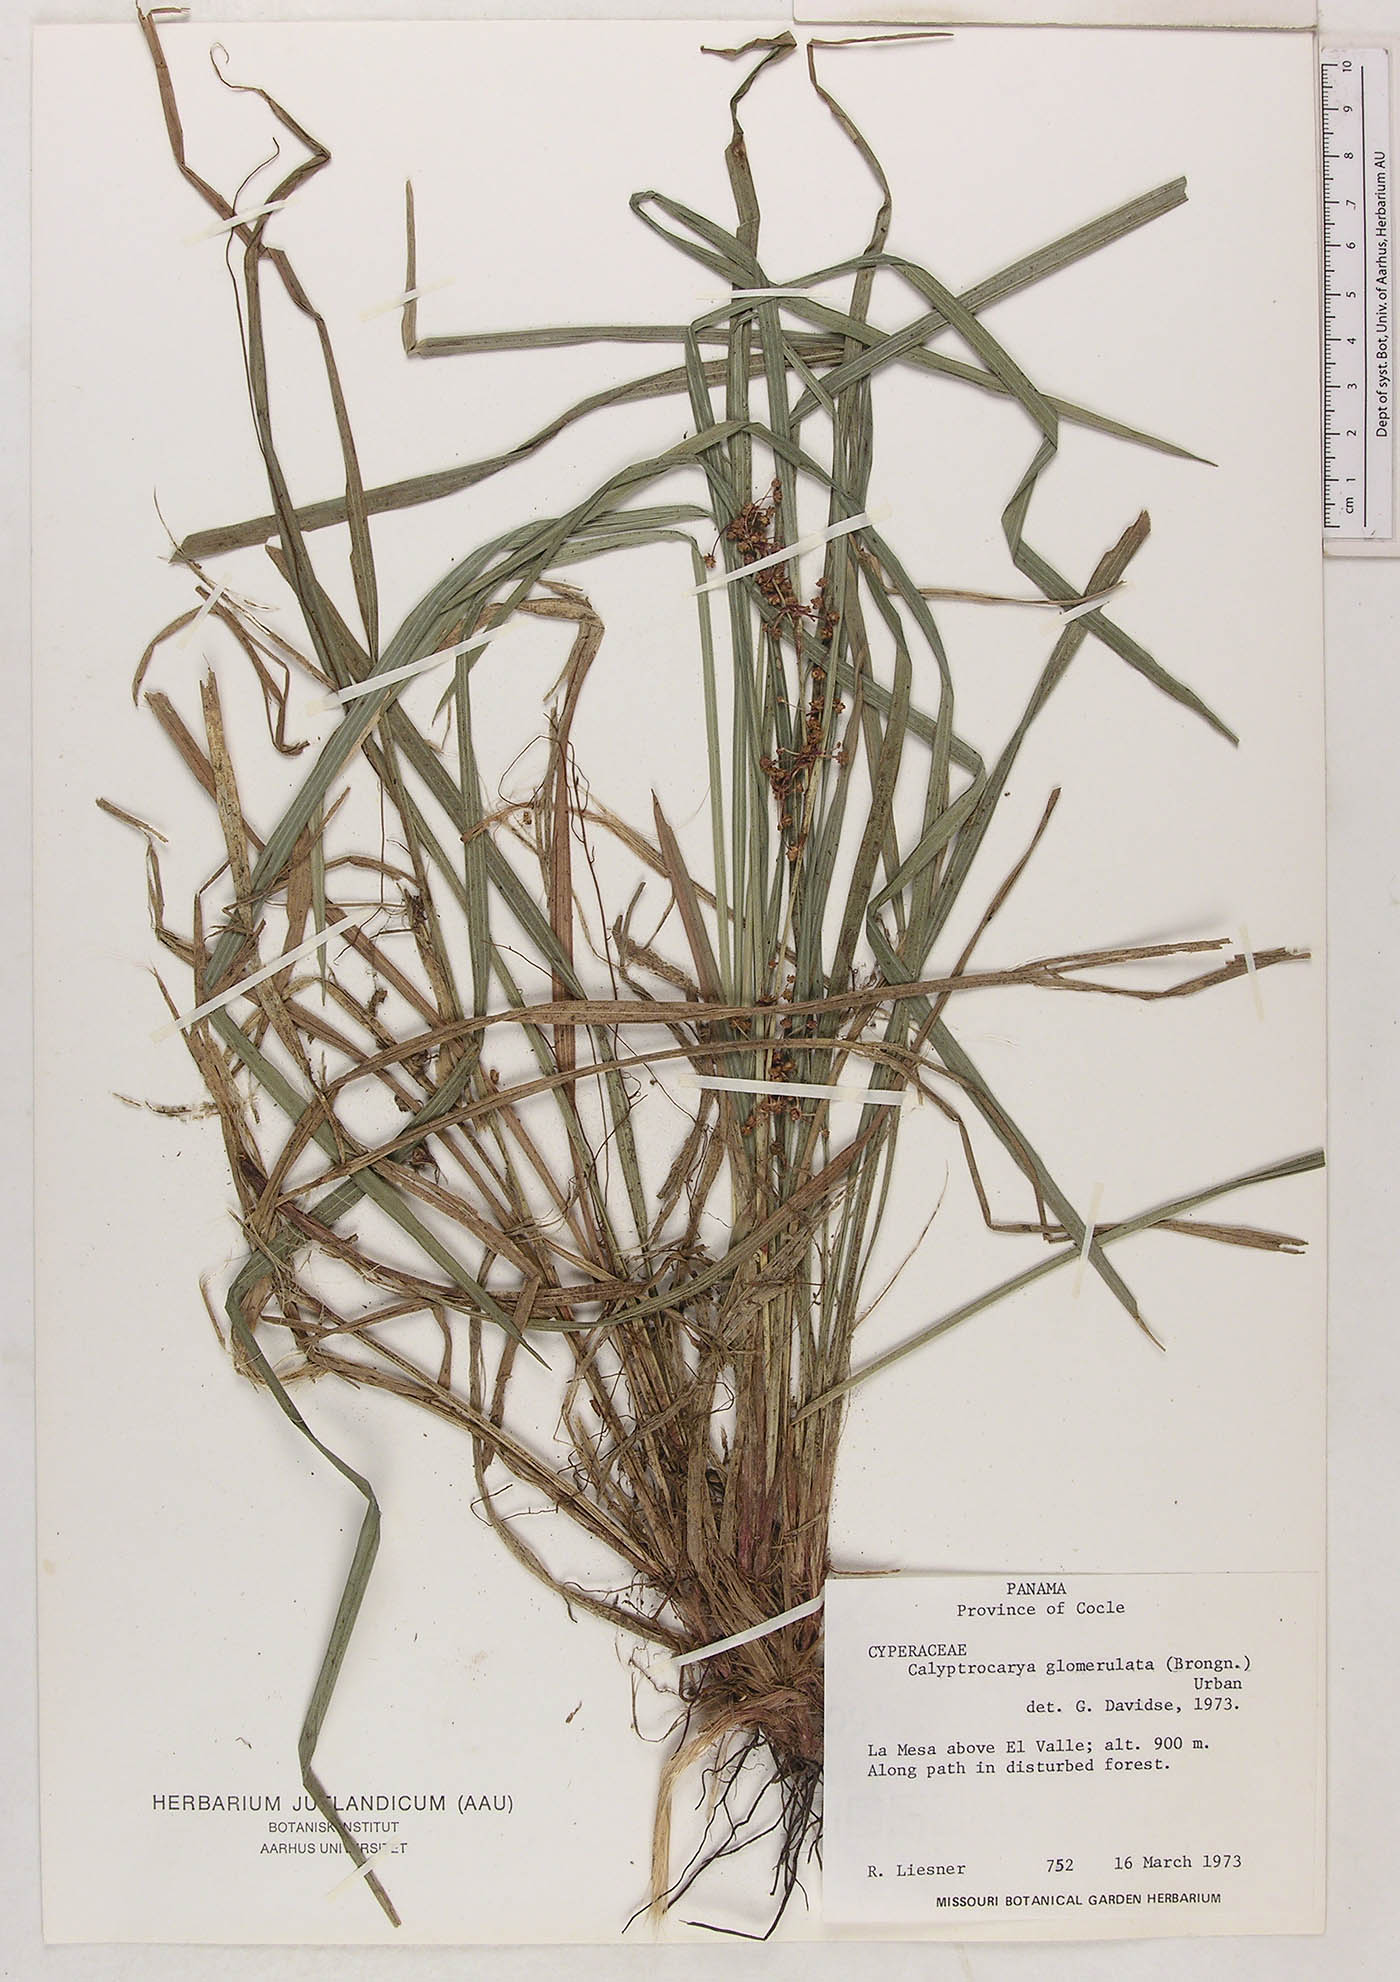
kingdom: Plantae
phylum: Tracheophyta
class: Liliopsida
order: Poales
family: Cyperaceae
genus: Calyptrocarya
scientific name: Calyptrocarya glomerulata
